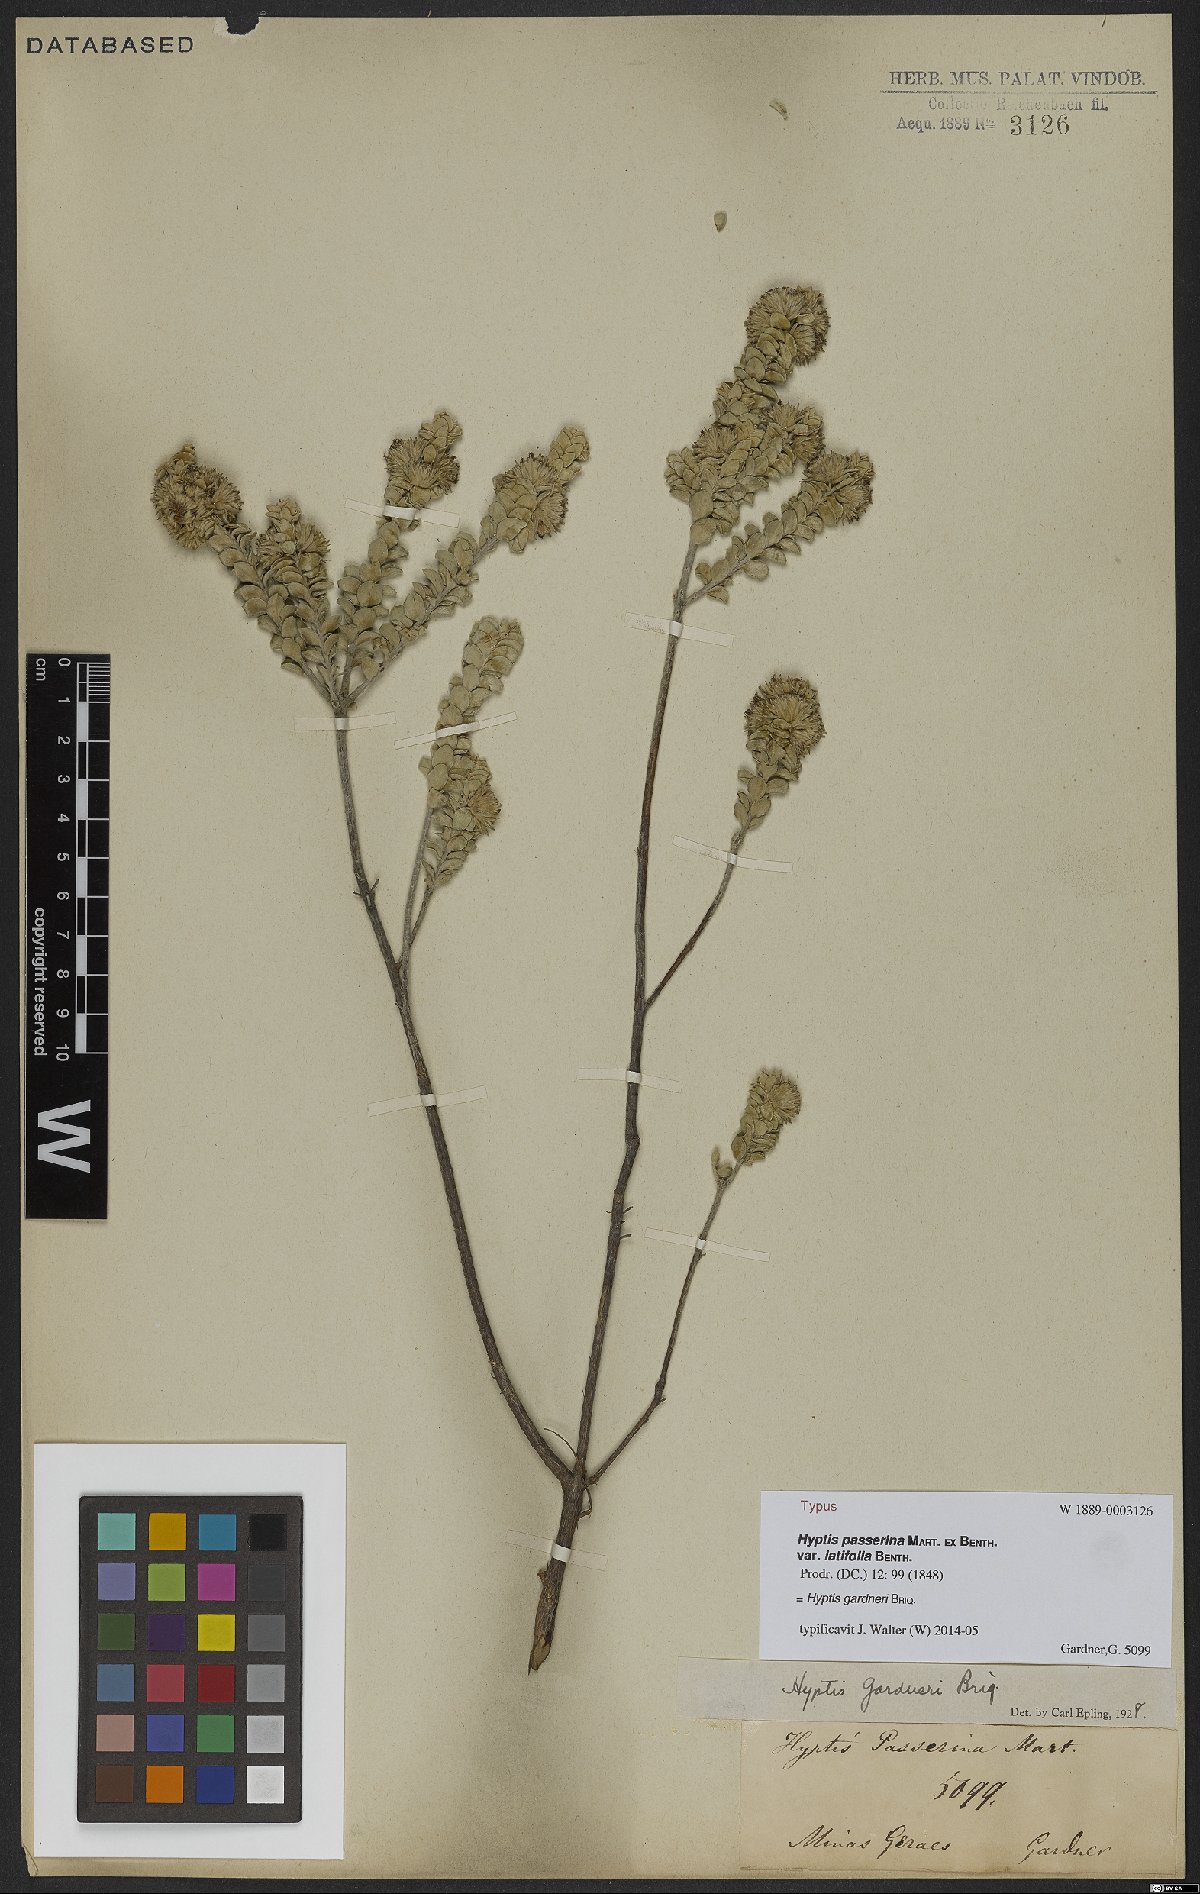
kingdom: Plantae
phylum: Tracheophyta
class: Magnoliopsida
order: Lamiales
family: Lamiaceae
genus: Hyptis
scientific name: Hyptis gardneri
